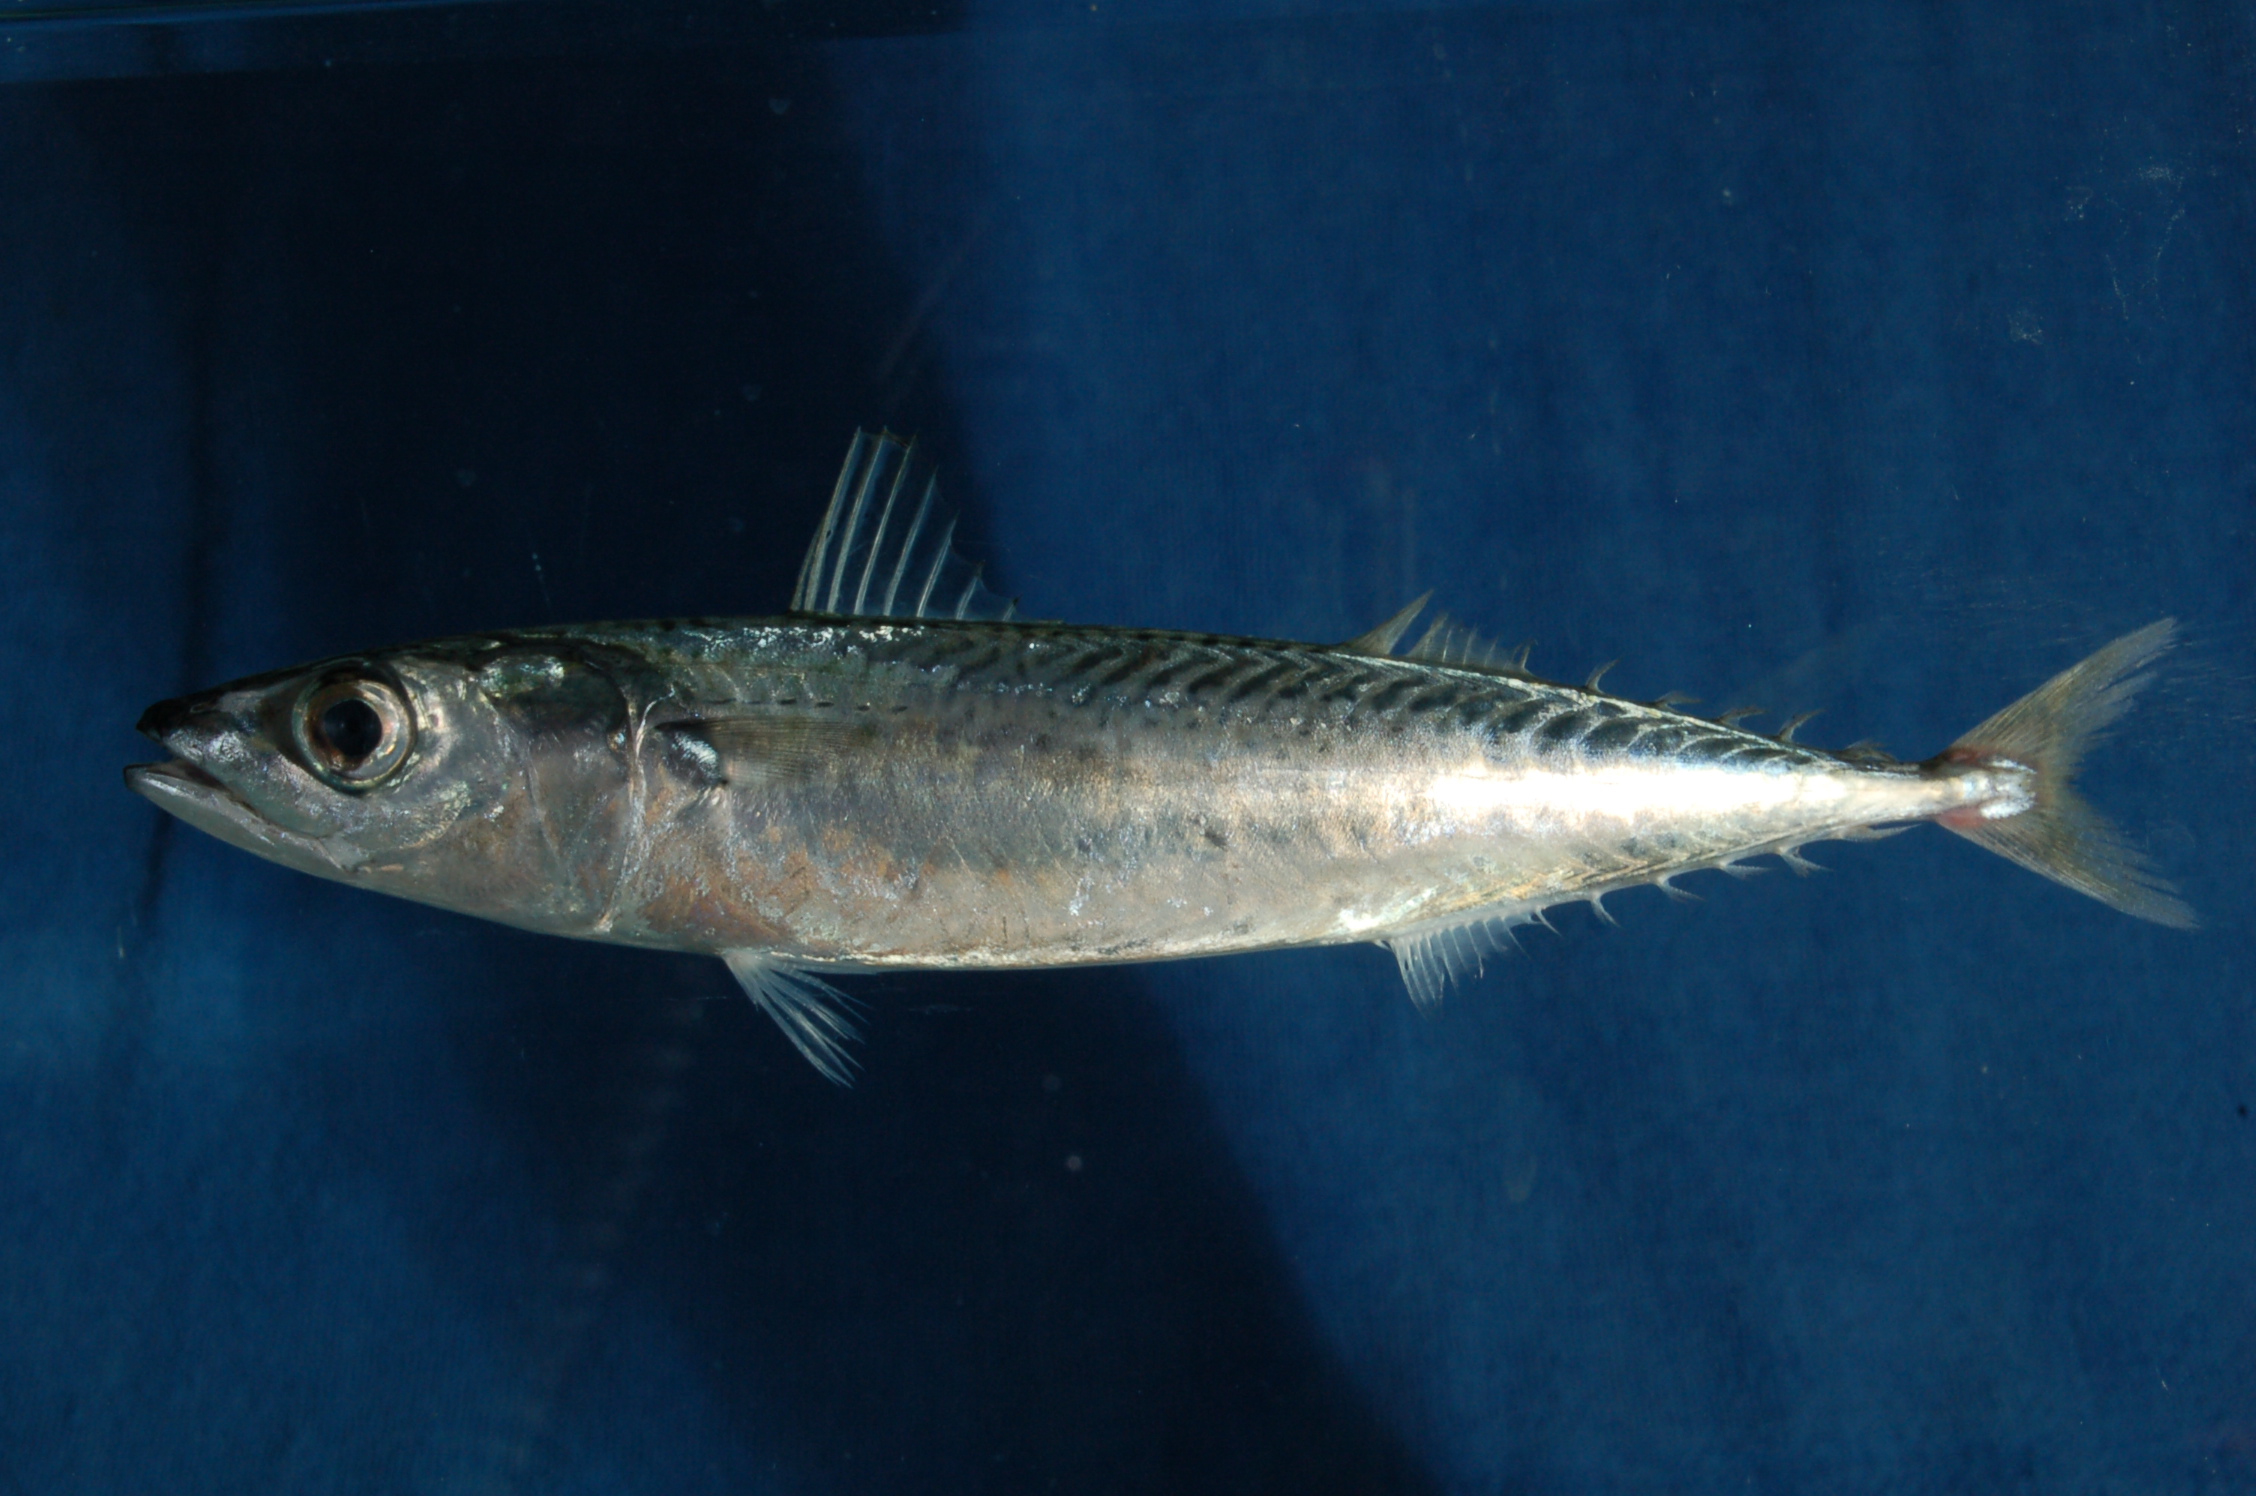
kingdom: Animalia
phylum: Chordata
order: Perciformes
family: Scombridae
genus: Scomber
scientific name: Scomber japonicus
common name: Chub mackerel
